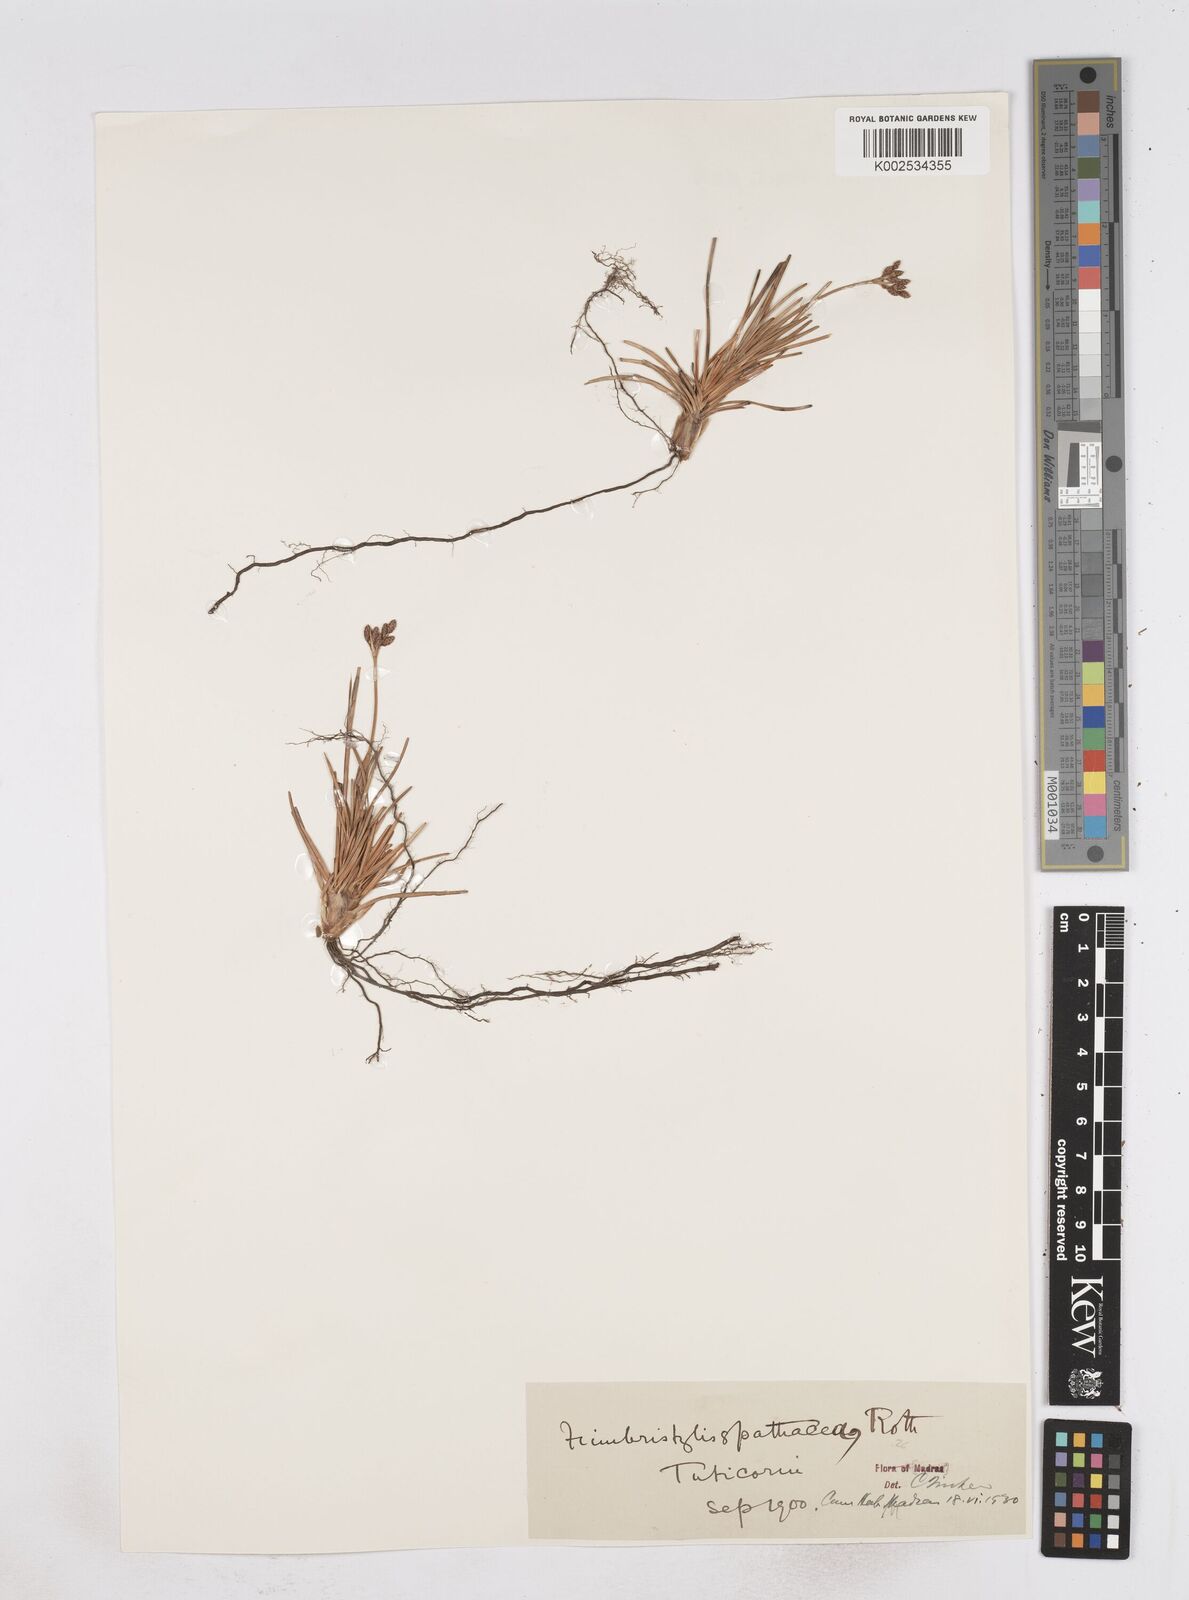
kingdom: Plantae
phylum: Tracheophyta
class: Liliopsida
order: Poales
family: Cyperaceae
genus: Fimbristylis
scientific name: Fimbristylis cymosa
